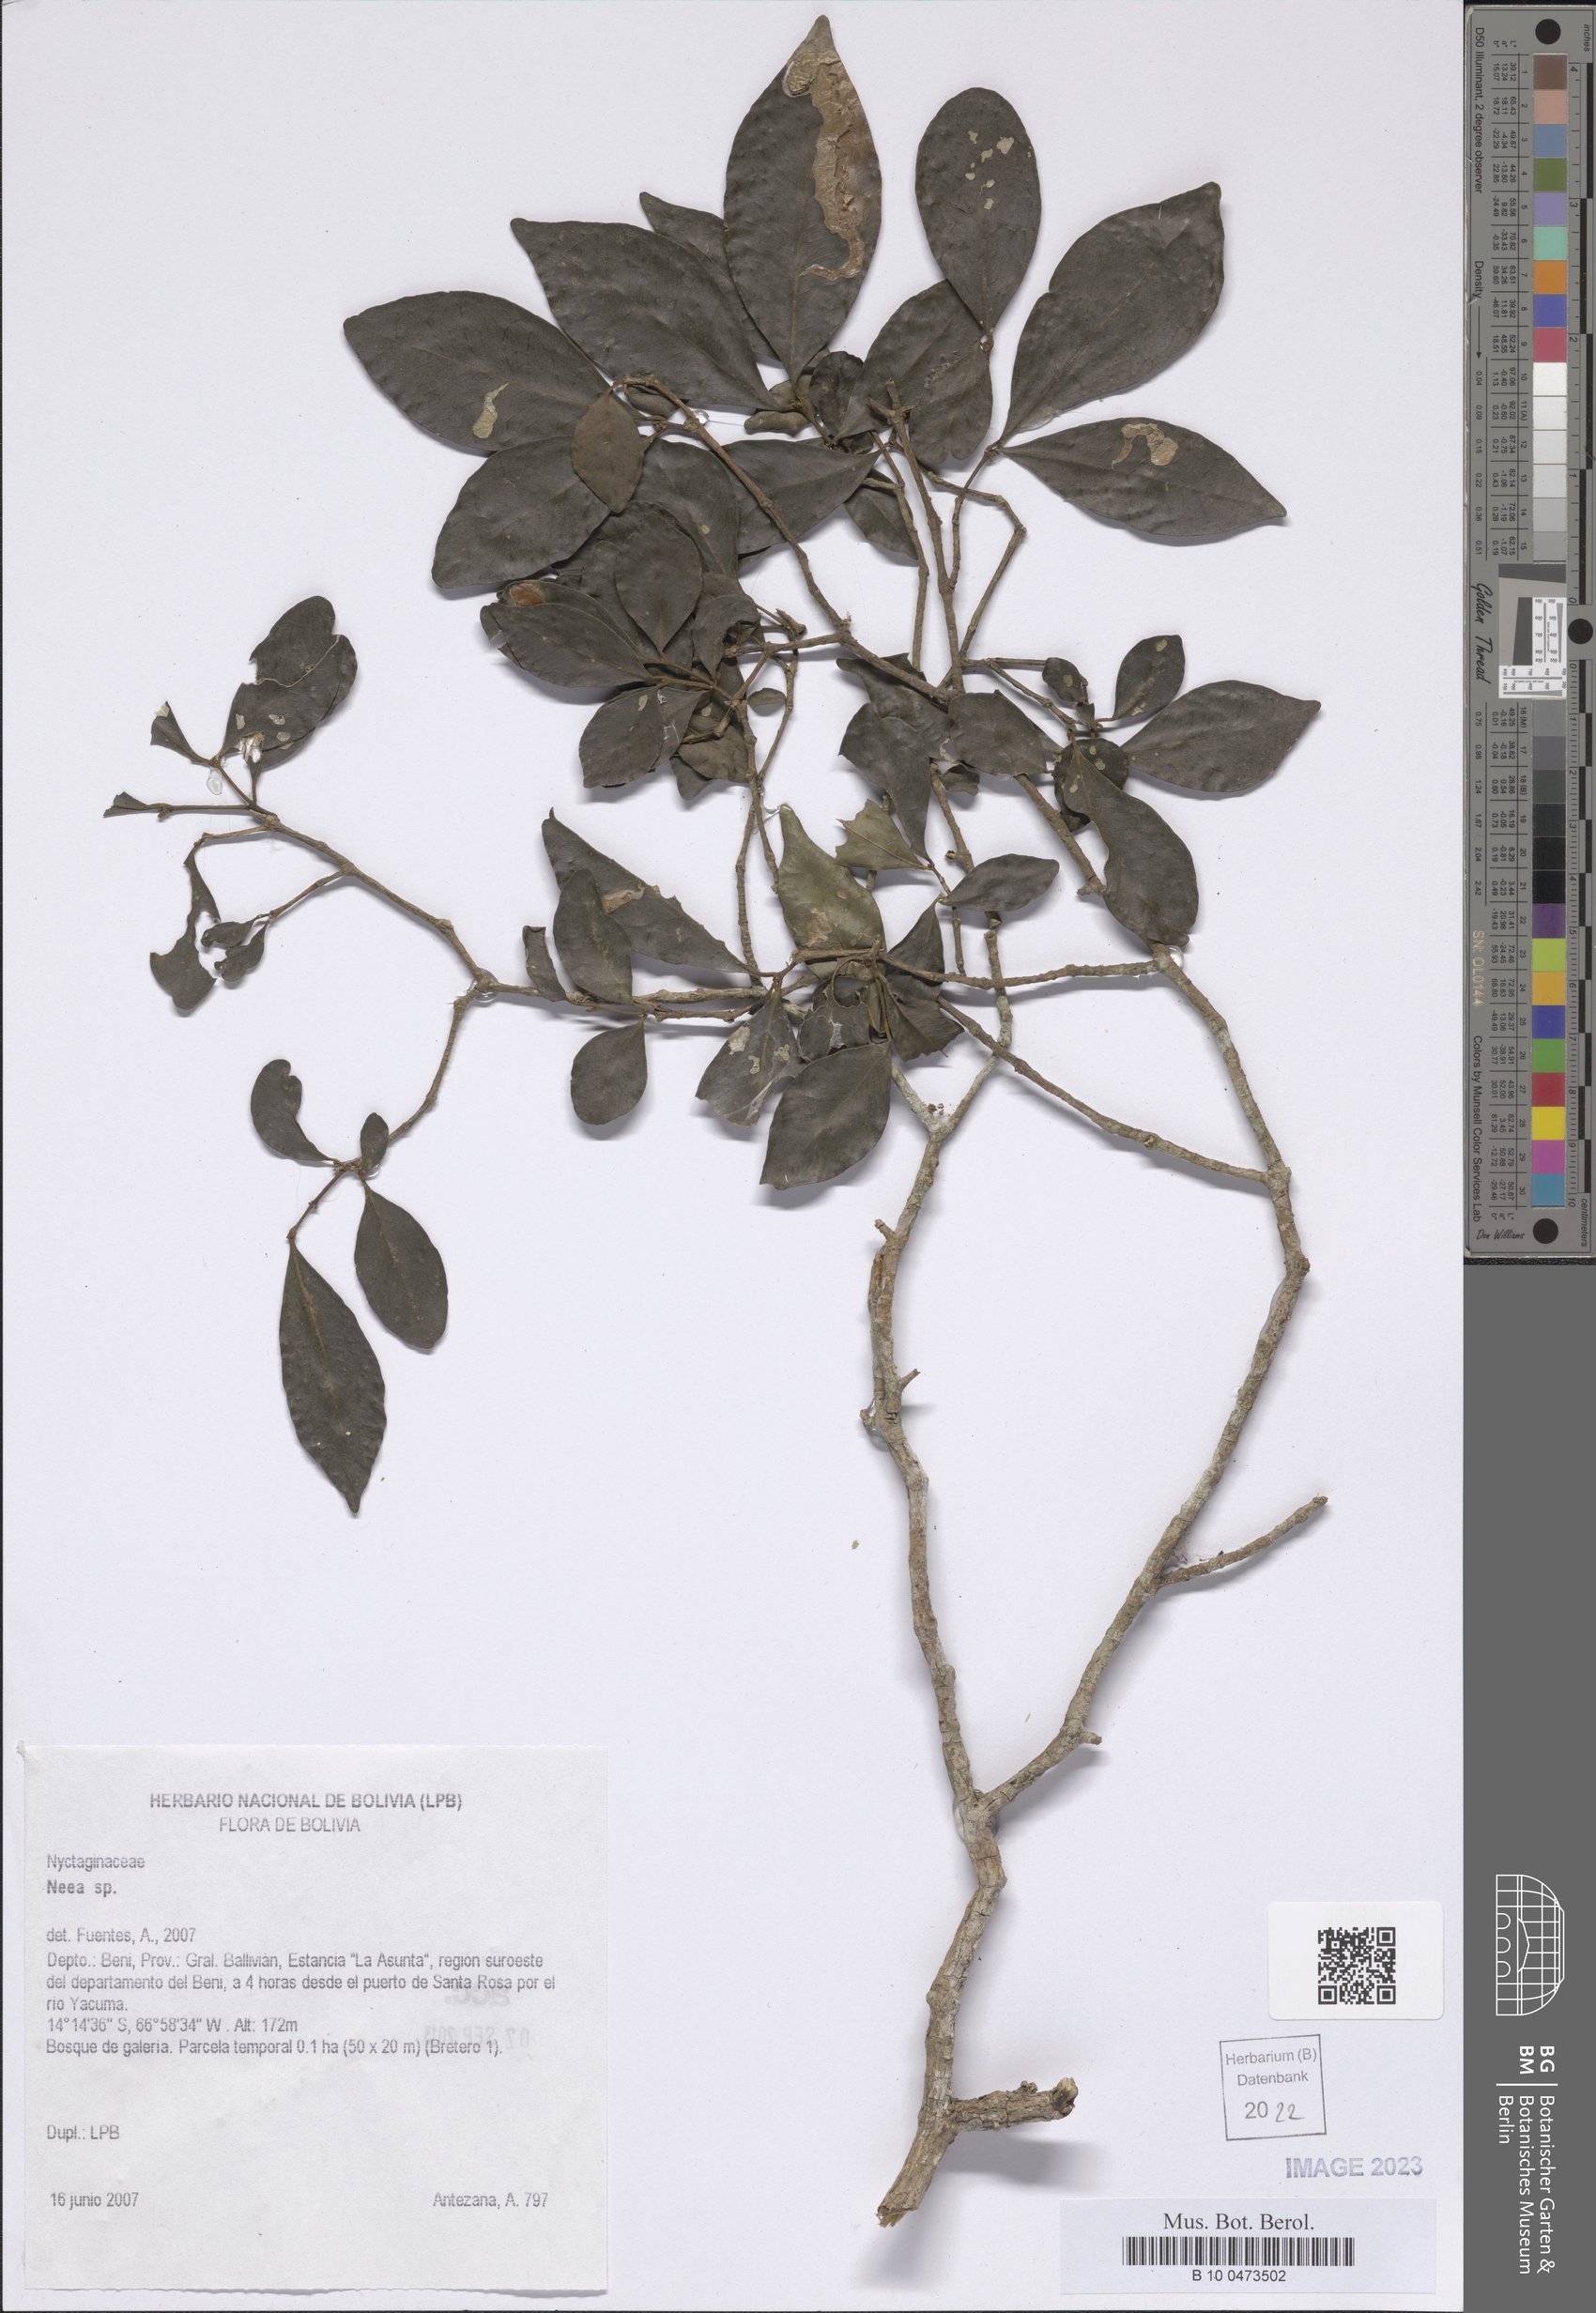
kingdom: Plantae
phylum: Tracheophyta
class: Magnoliopsida
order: Caryophyllales
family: Nyctaginaceae
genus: Neea
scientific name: Neea
